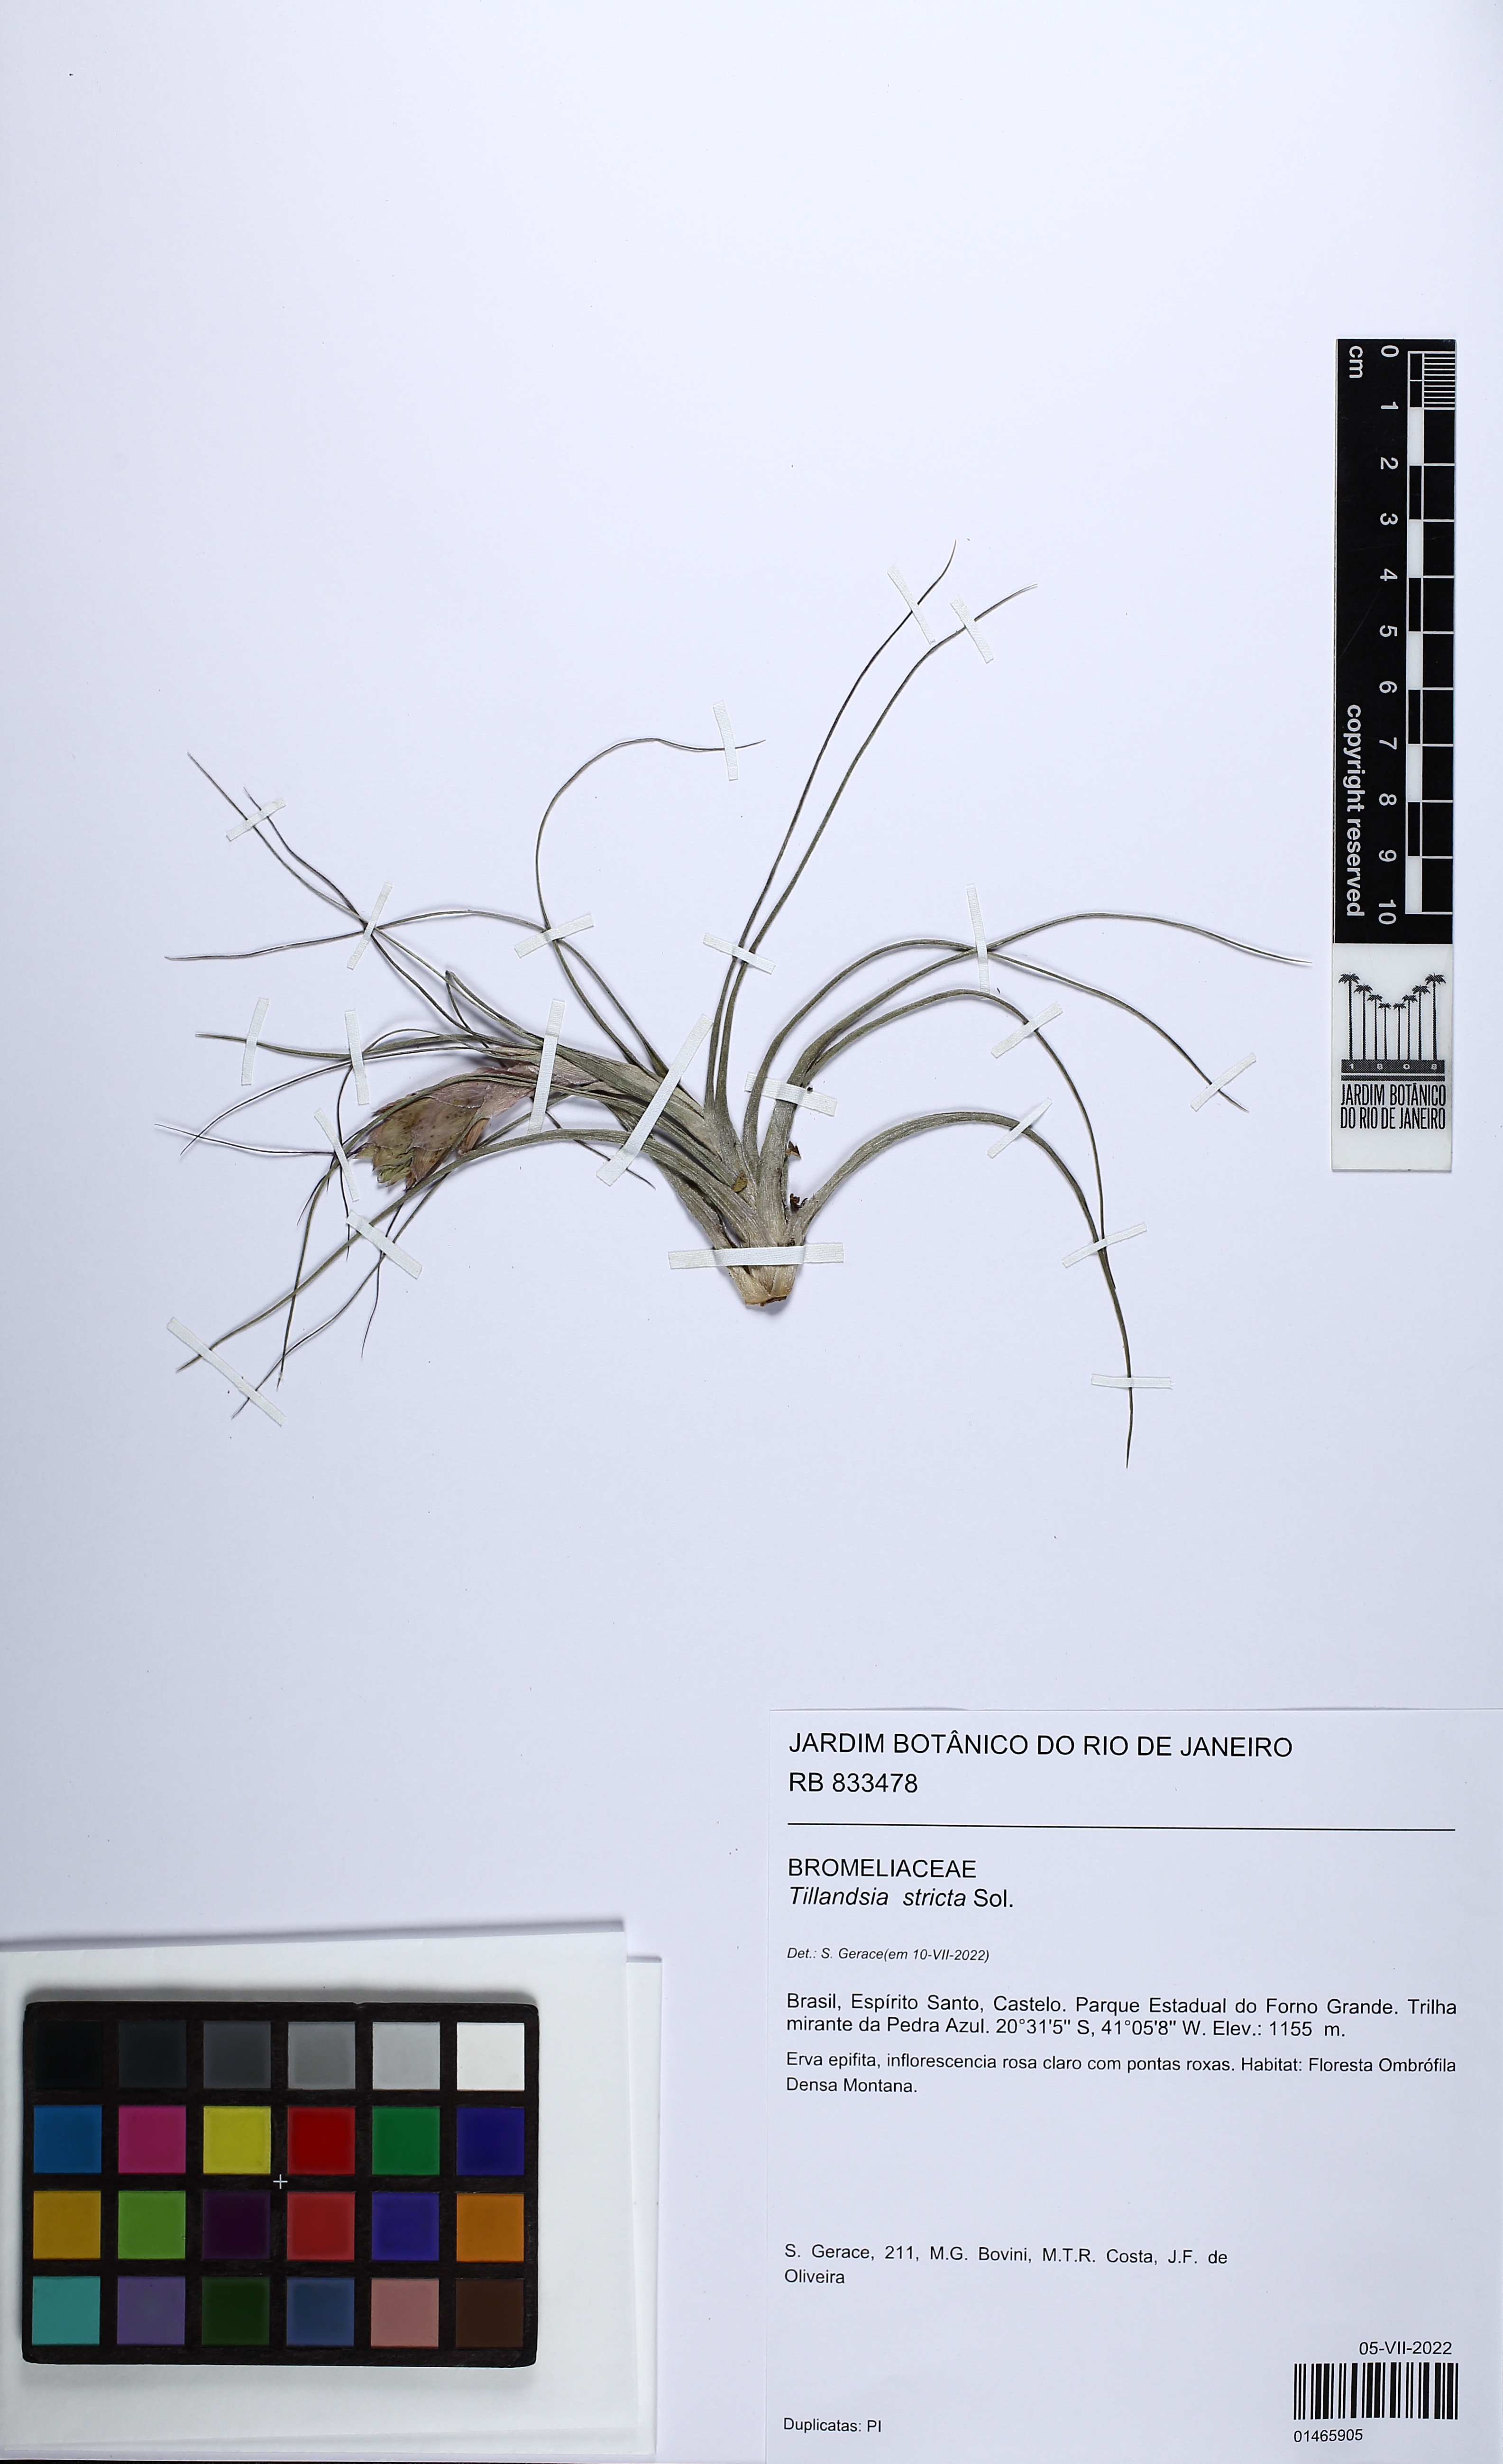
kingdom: Plantae
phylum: Tracheophyta
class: Liliopsida
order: Poales
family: Bromeliaceae
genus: Tillandsia
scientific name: Tillandsia stricta
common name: Airplant
